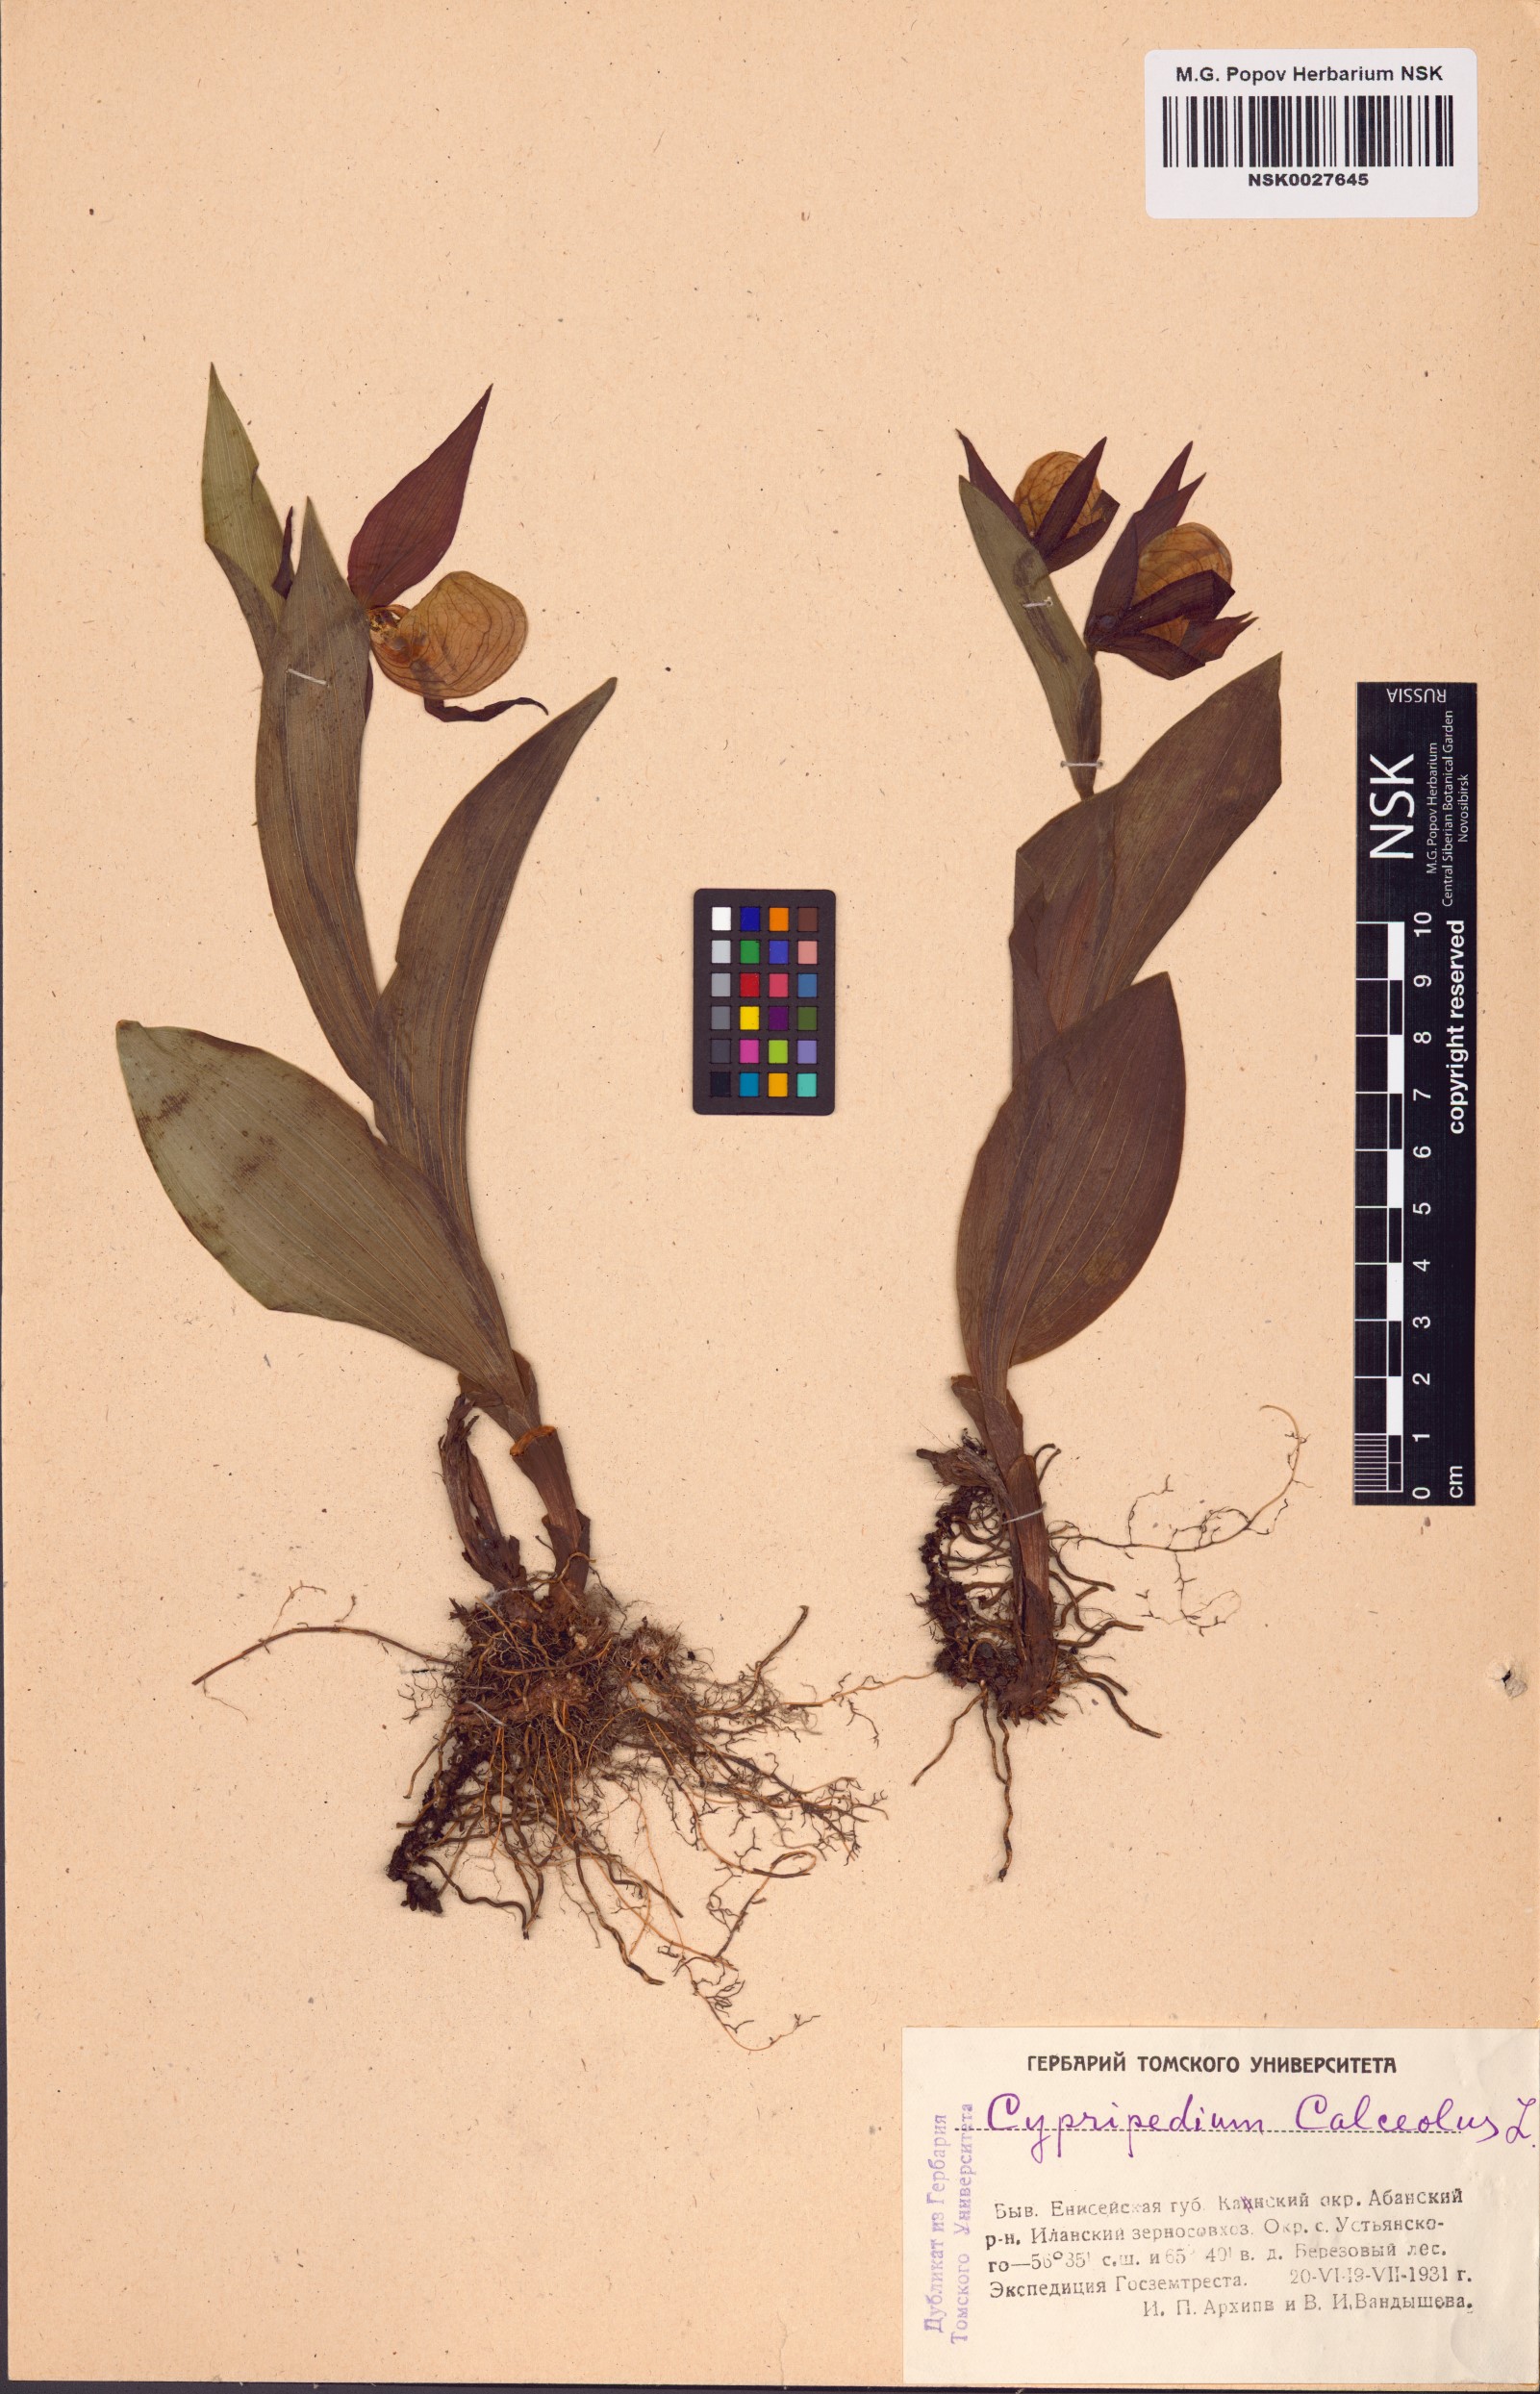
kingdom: Plantae
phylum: Tracheophyta
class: Liliopsida
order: Asparagales
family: Orchidaceae
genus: Cypripedium
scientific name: Cypripedium calceolus
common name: Lady's-slipper
